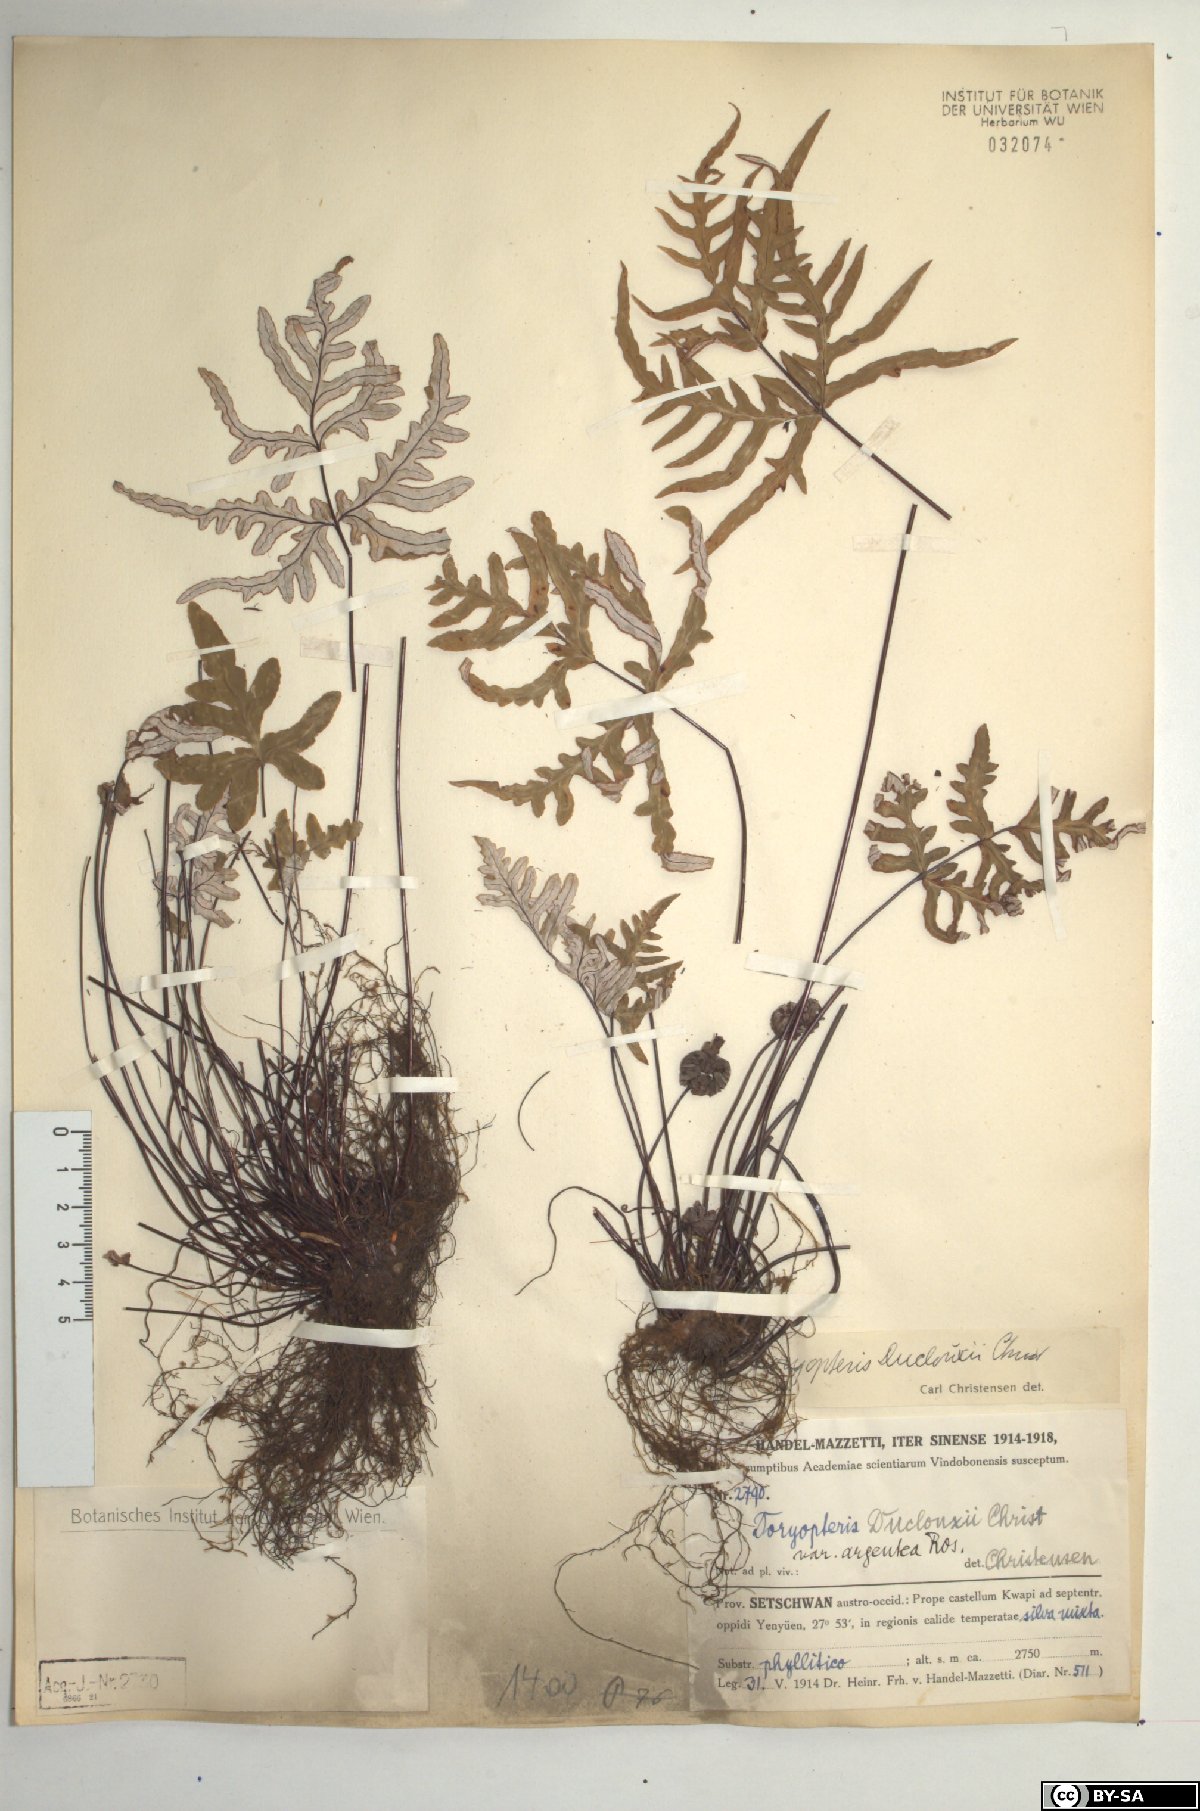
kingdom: Plantae
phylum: Tracheophyta
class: Polypodiopsida
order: Polypodiales
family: Pteridaceae
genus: Aleuritopteris
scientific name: Aleuritopteris duclouxii
